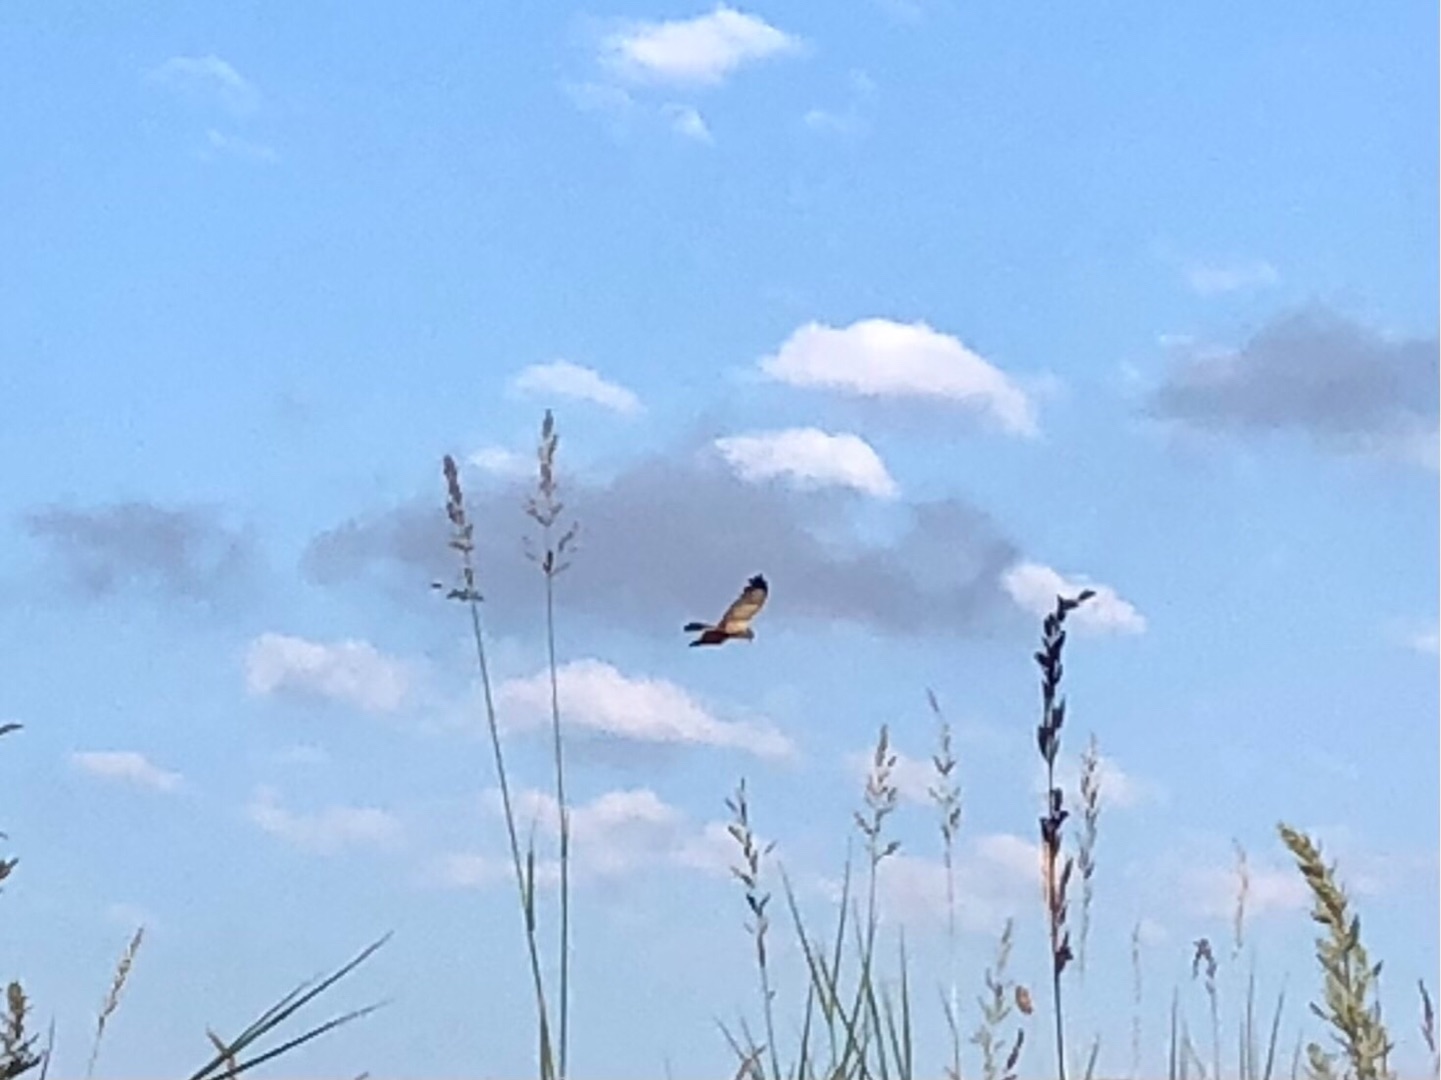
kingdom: Animalia
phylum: Chordata
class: Aves
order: Accipitriformes
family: Accipitridae
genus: Circus
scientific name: Circus aeruginosus
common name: Rørhøg
